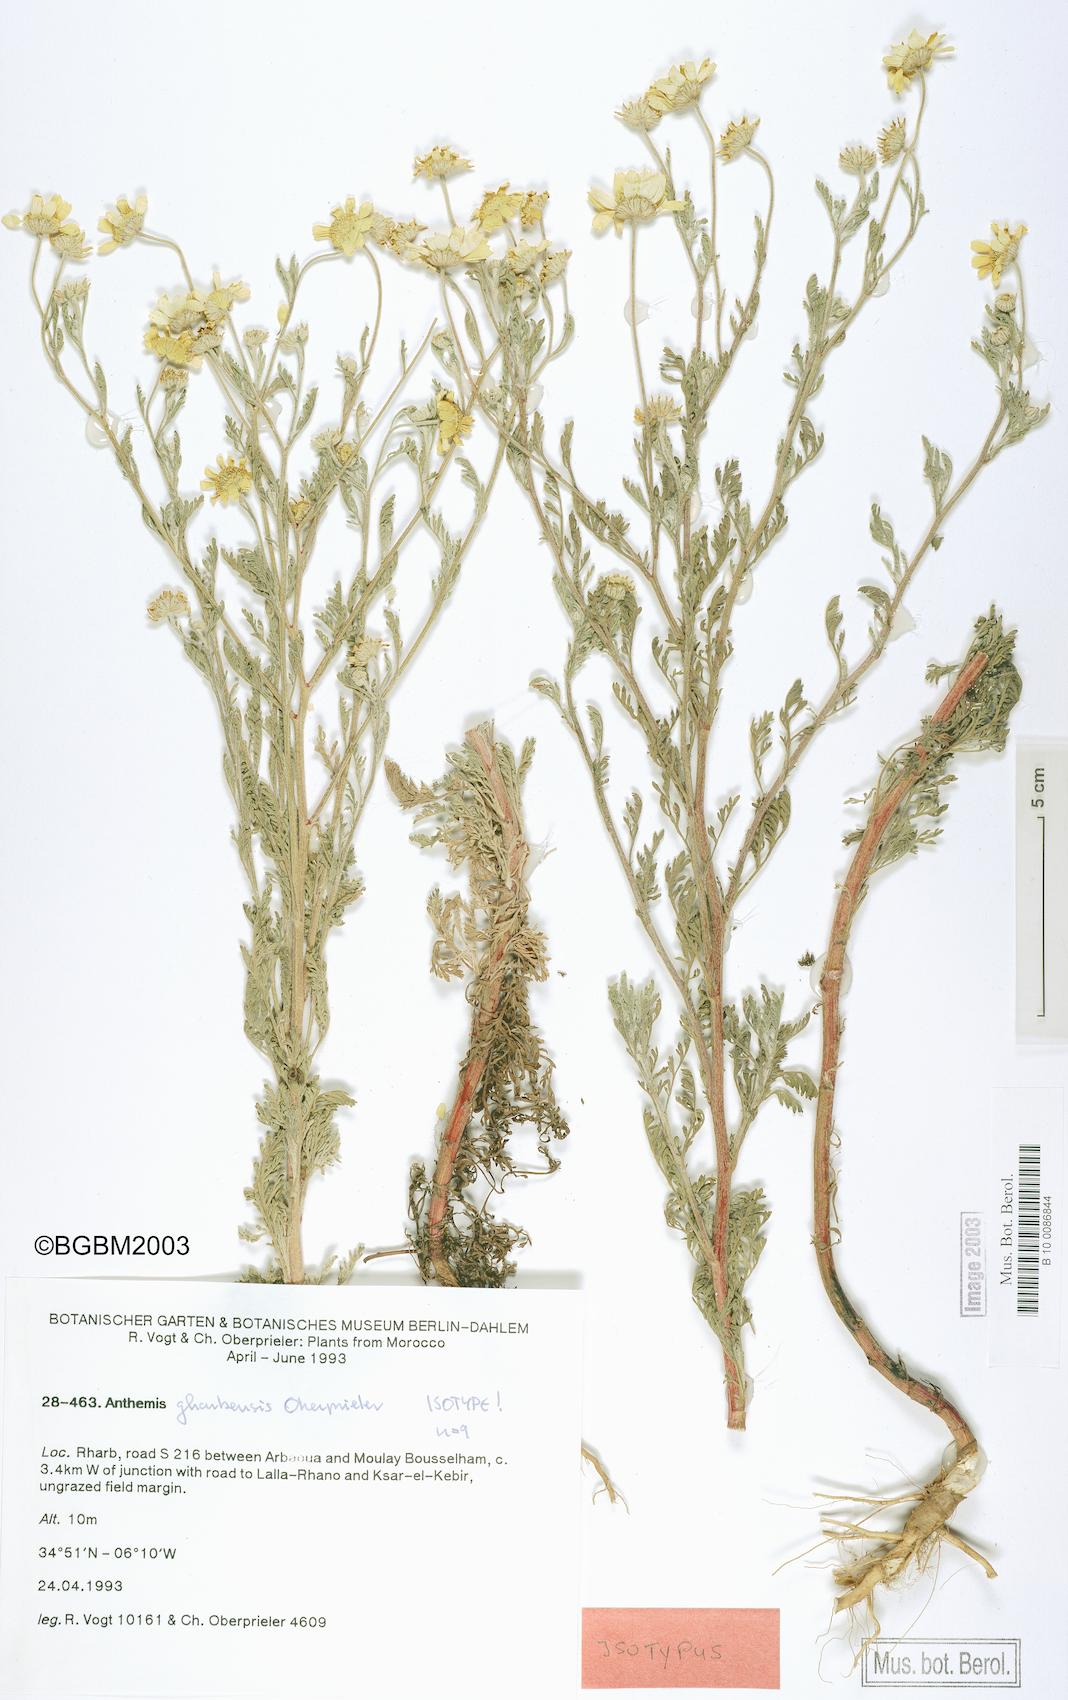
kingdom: Plantae
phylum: Tracheophyta
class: Magnoliopsida
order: Asterales
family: Asteraceae
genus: Anthemis
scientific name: Anthemis gharbensis
